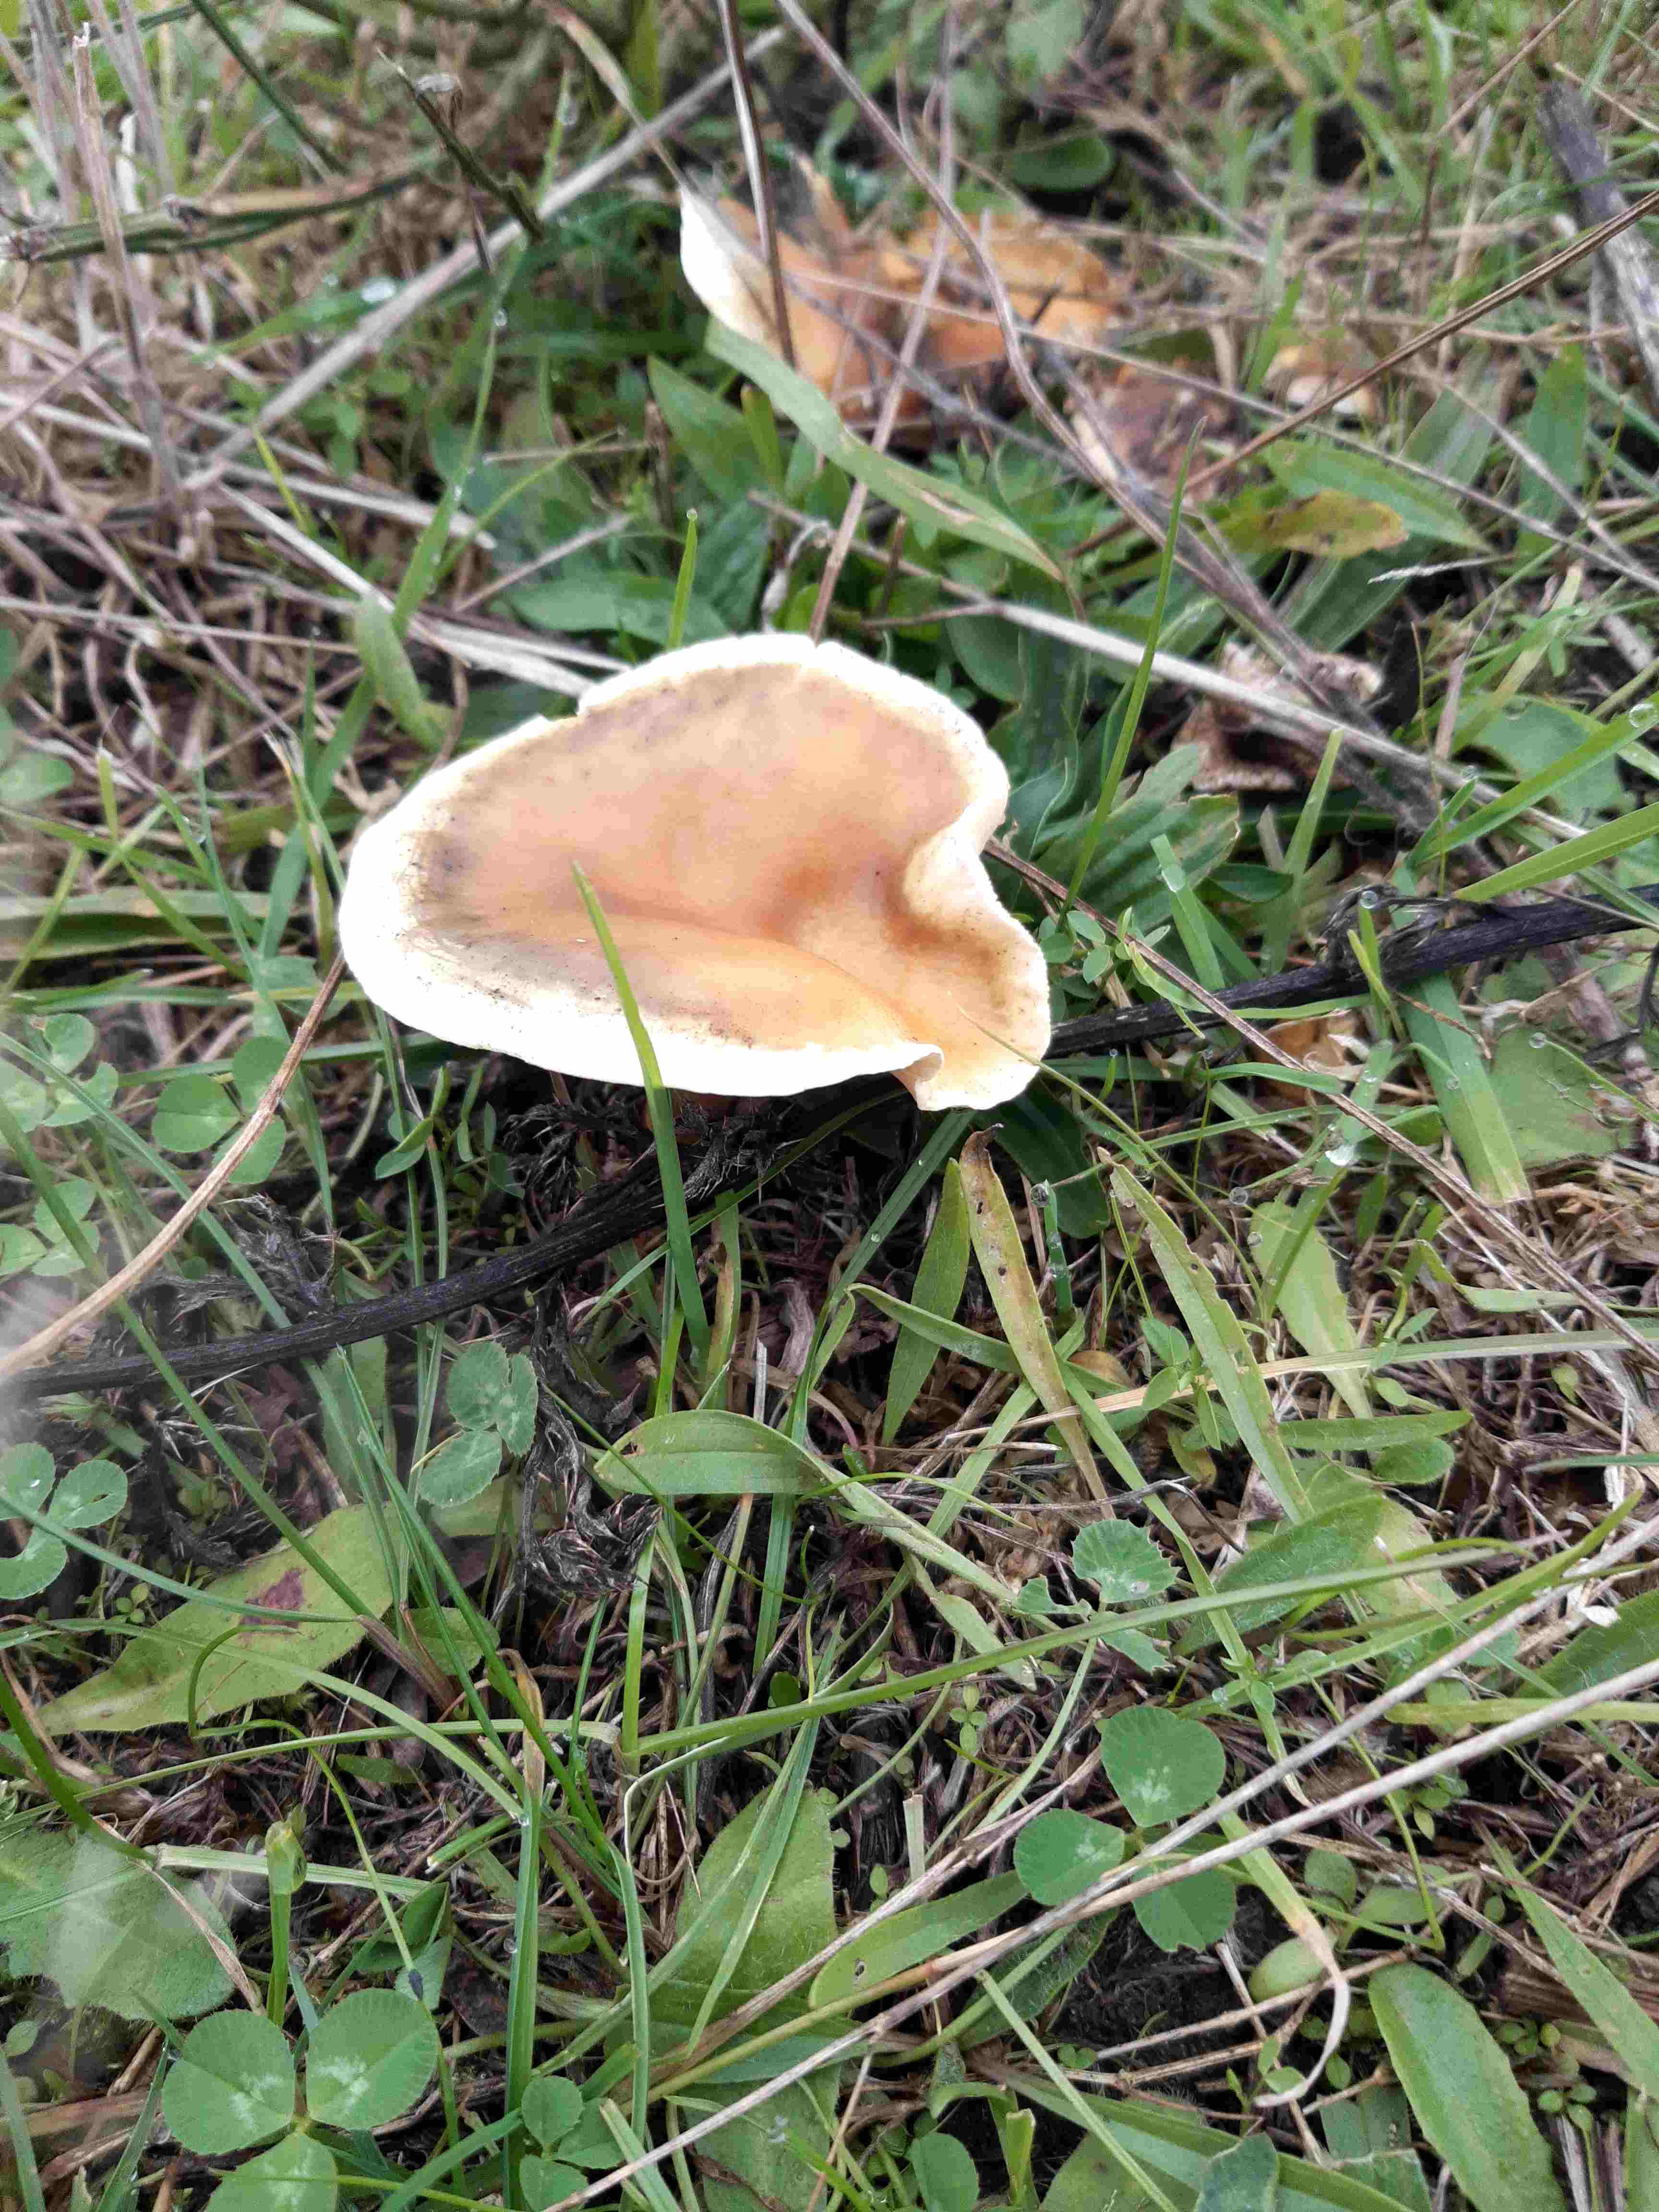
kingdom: Fungi
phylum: Basidiomycota
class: Agaricomycetes
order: Boletales
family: Hygrophoropsidaceae
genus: Hygrophoropsis
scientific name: Hygrophoropsis aurantiaca
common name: almindelig orangekantarel
